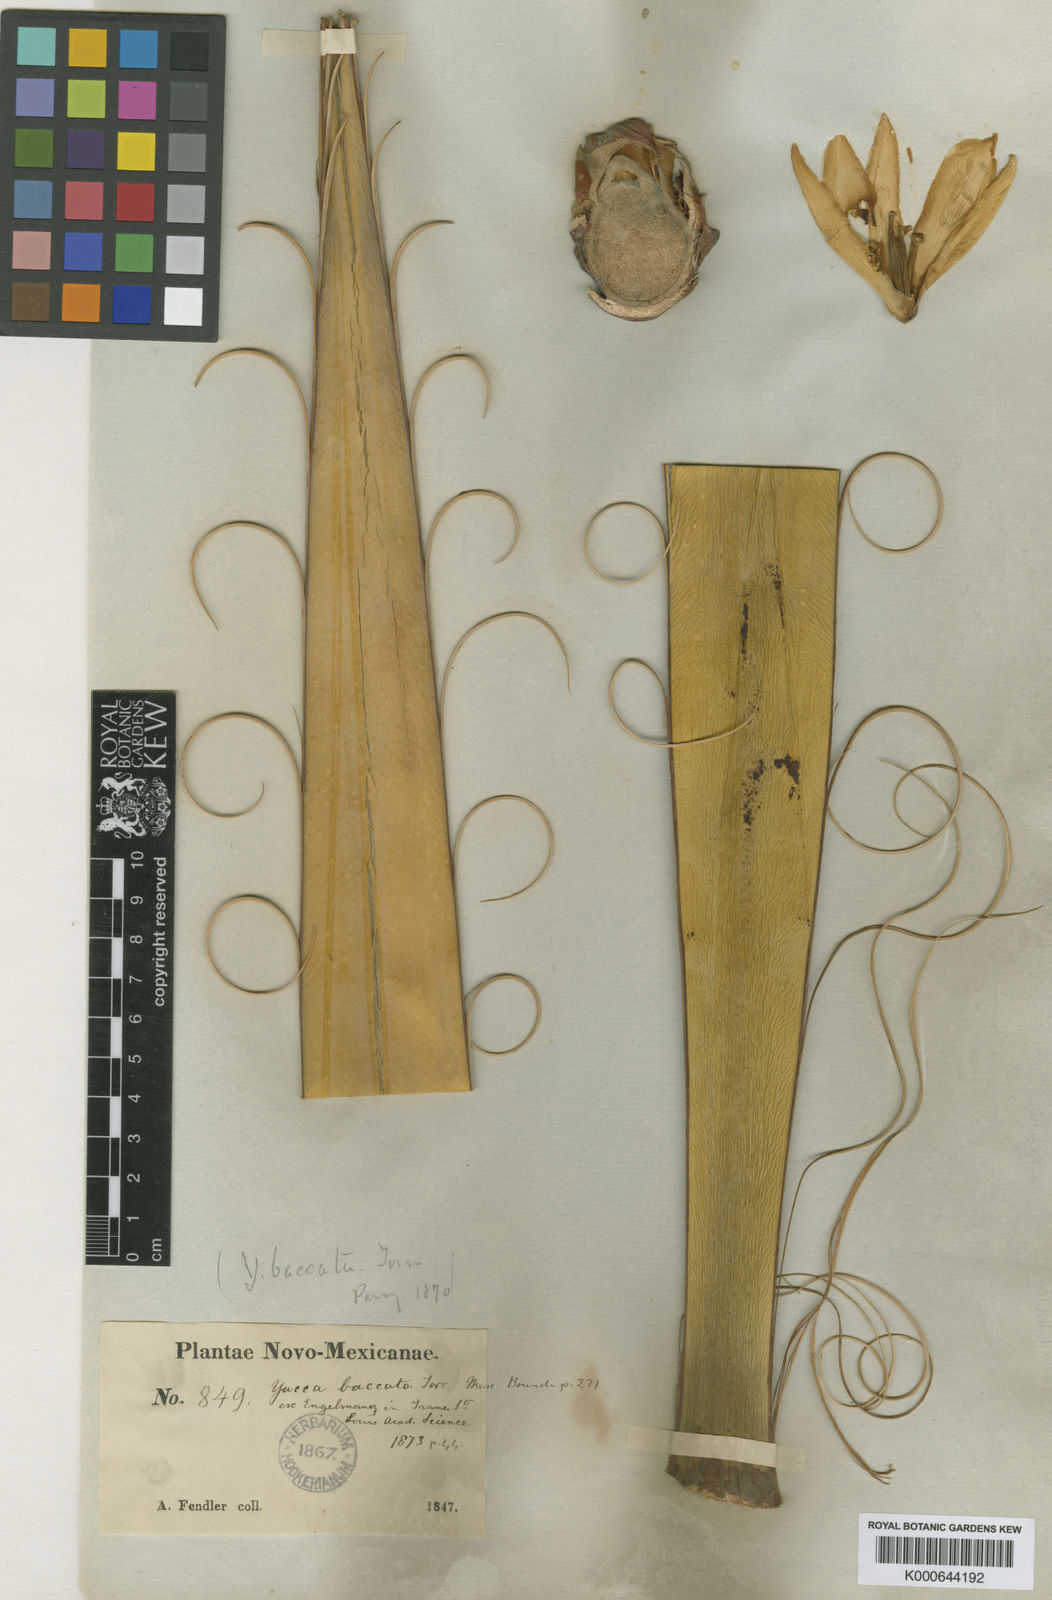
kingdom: Plantae
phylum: Tracheophyta
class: Liliopsida
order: Asparagales
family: Asparagaceae
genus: Yucca
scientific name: Yucca baccata
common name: Banana yucca
